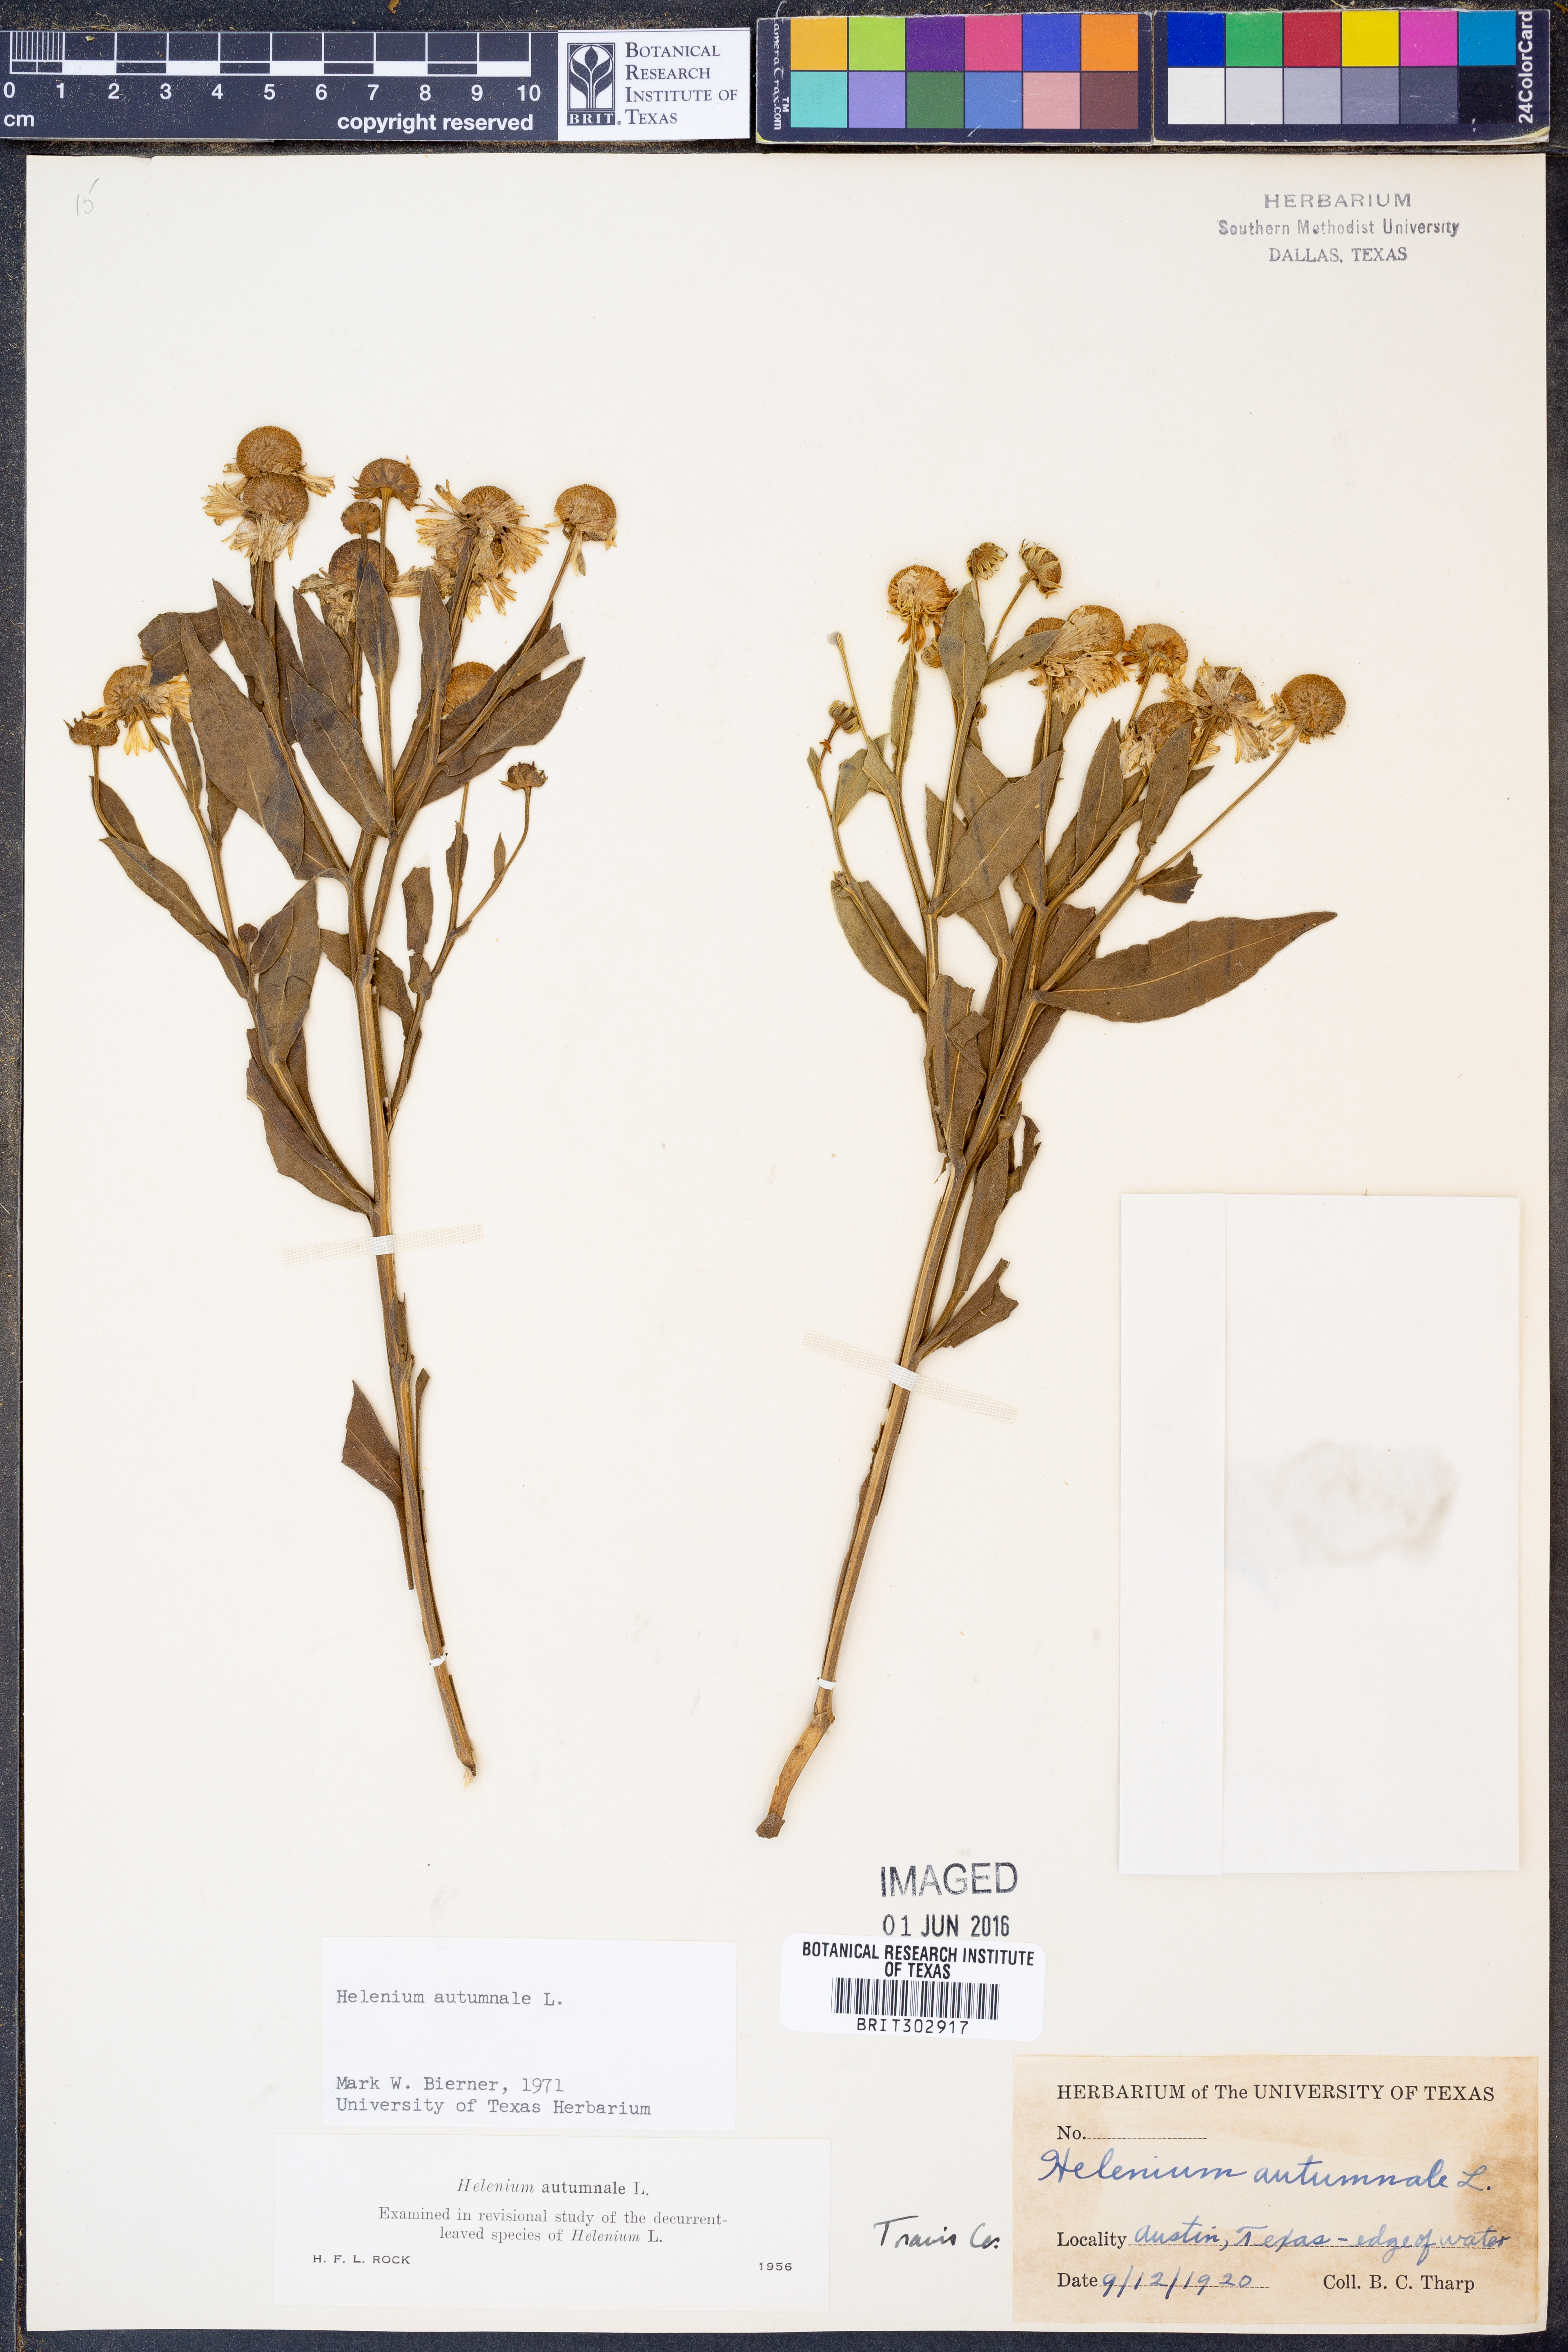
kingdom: Plantae
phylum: Tracheophyta
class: Magnoliopsida
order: Asterales
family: Asteraceae
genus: Helenium
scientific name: Helenium autumnale
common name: Sneezeweed
